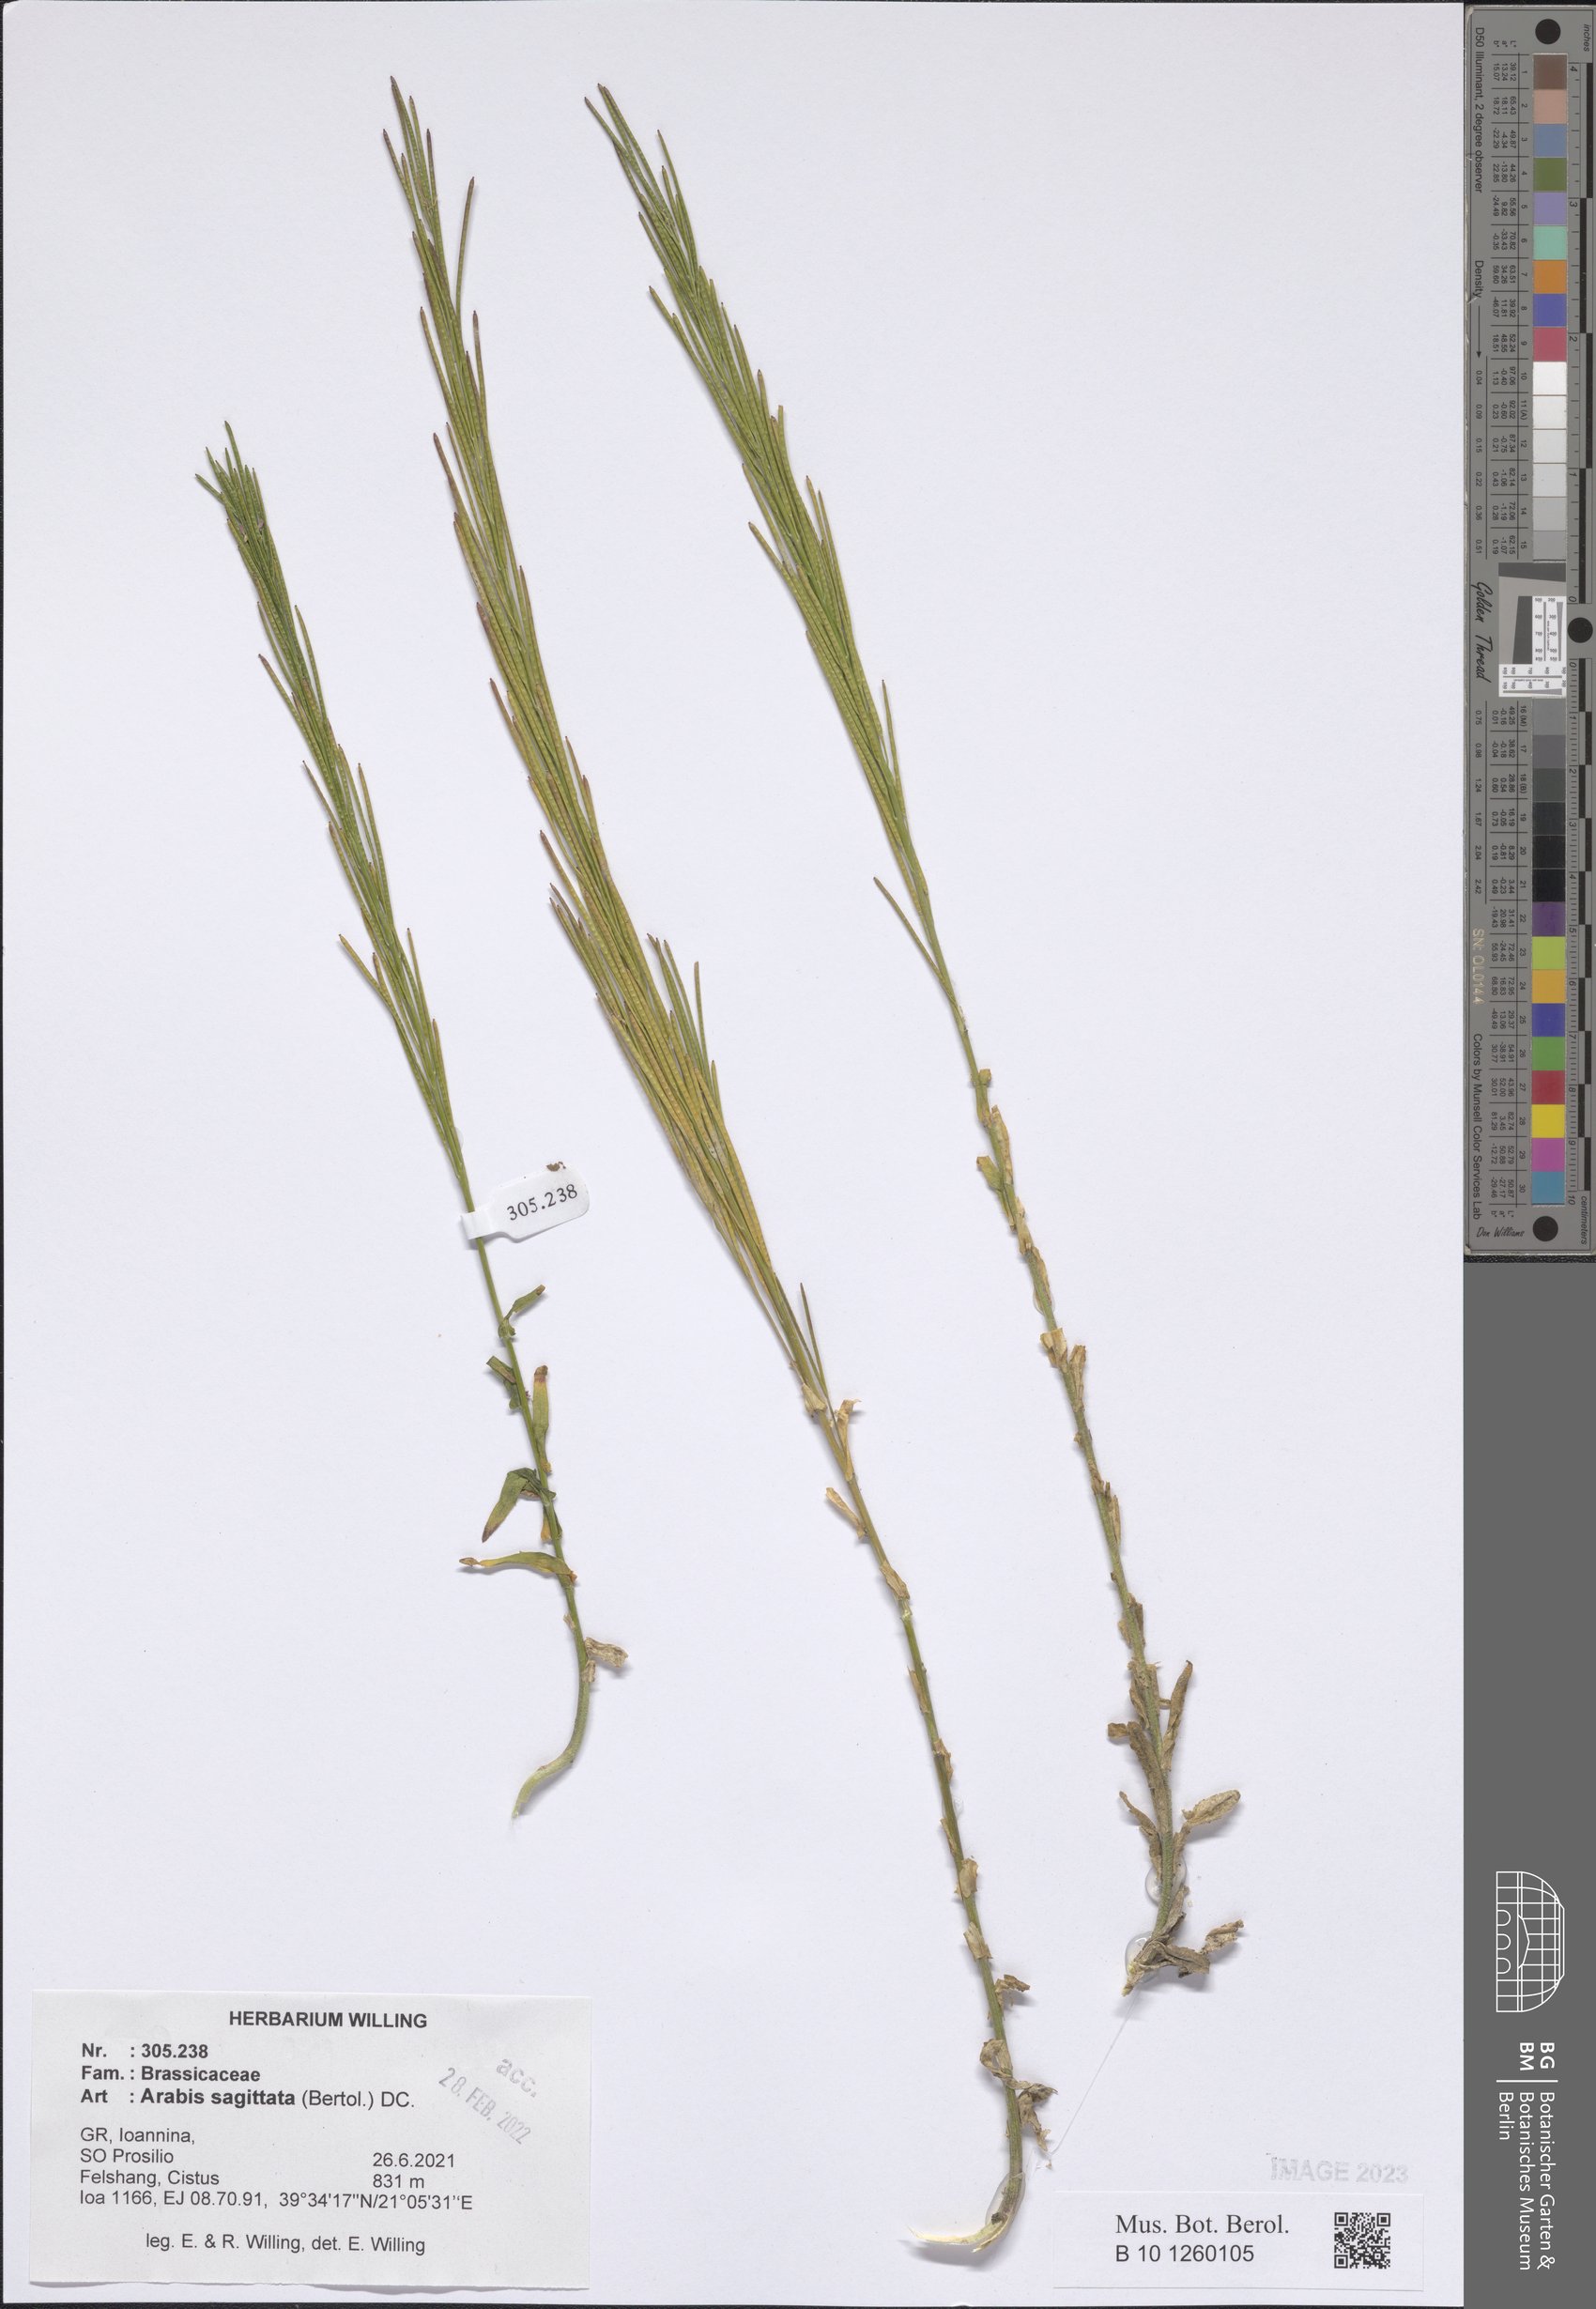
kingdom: Plantae
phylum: Tracheophyta
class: Magnoliopsida
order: Brassicales
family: Brassicaceae
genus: Arabis
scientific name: Arabis sagittata
